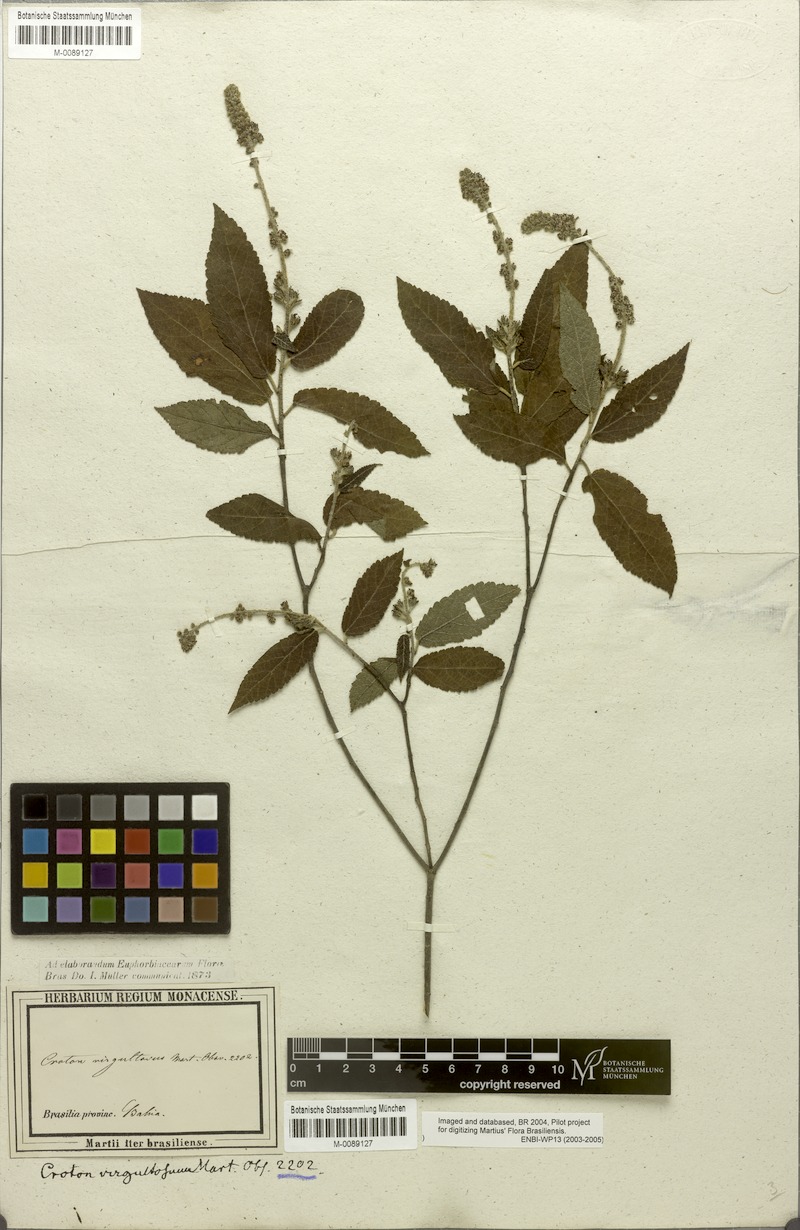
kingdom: Plantae
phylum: Tracheophyta
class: Magnoliopsida
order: Malpighiales
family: Euphorbiaceae
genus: Croton
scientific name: Croton virgultosus
